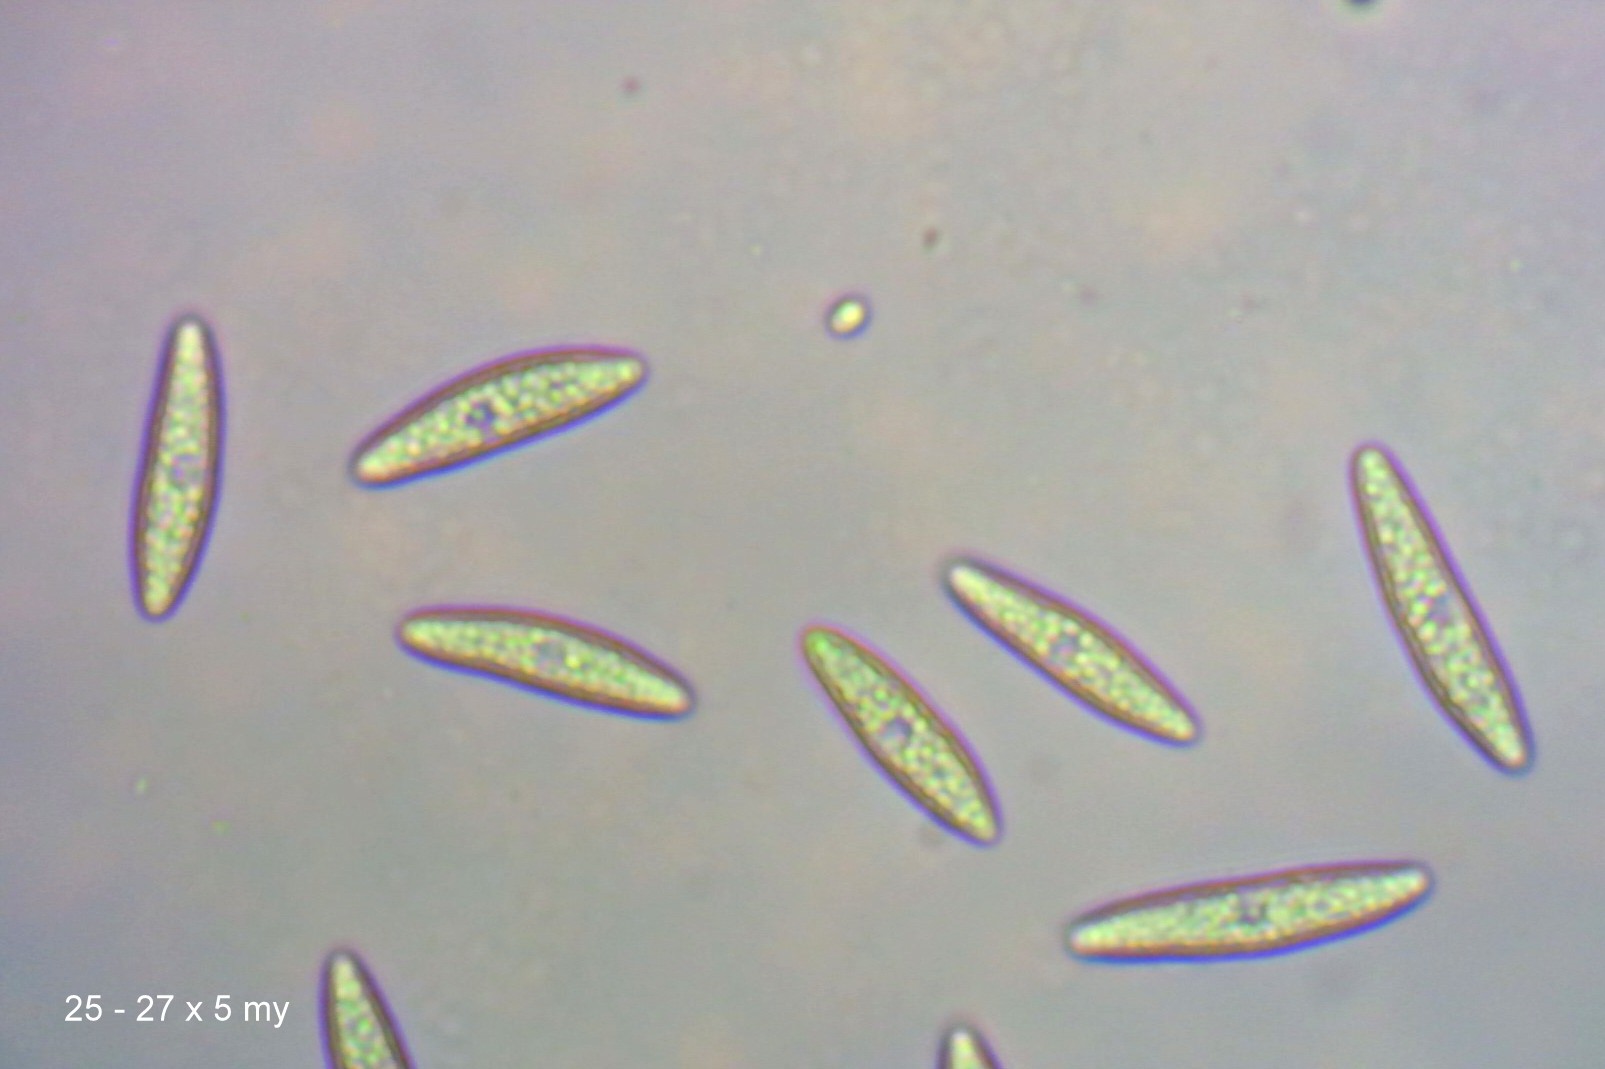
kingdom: Fungi
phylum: Ascomycota
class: Leotiomycetes
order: Helotiales
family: Gelatinodiscaceae
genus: Ascocoryne
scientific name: Ascocoryne cylichnium
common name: stor sejskive
